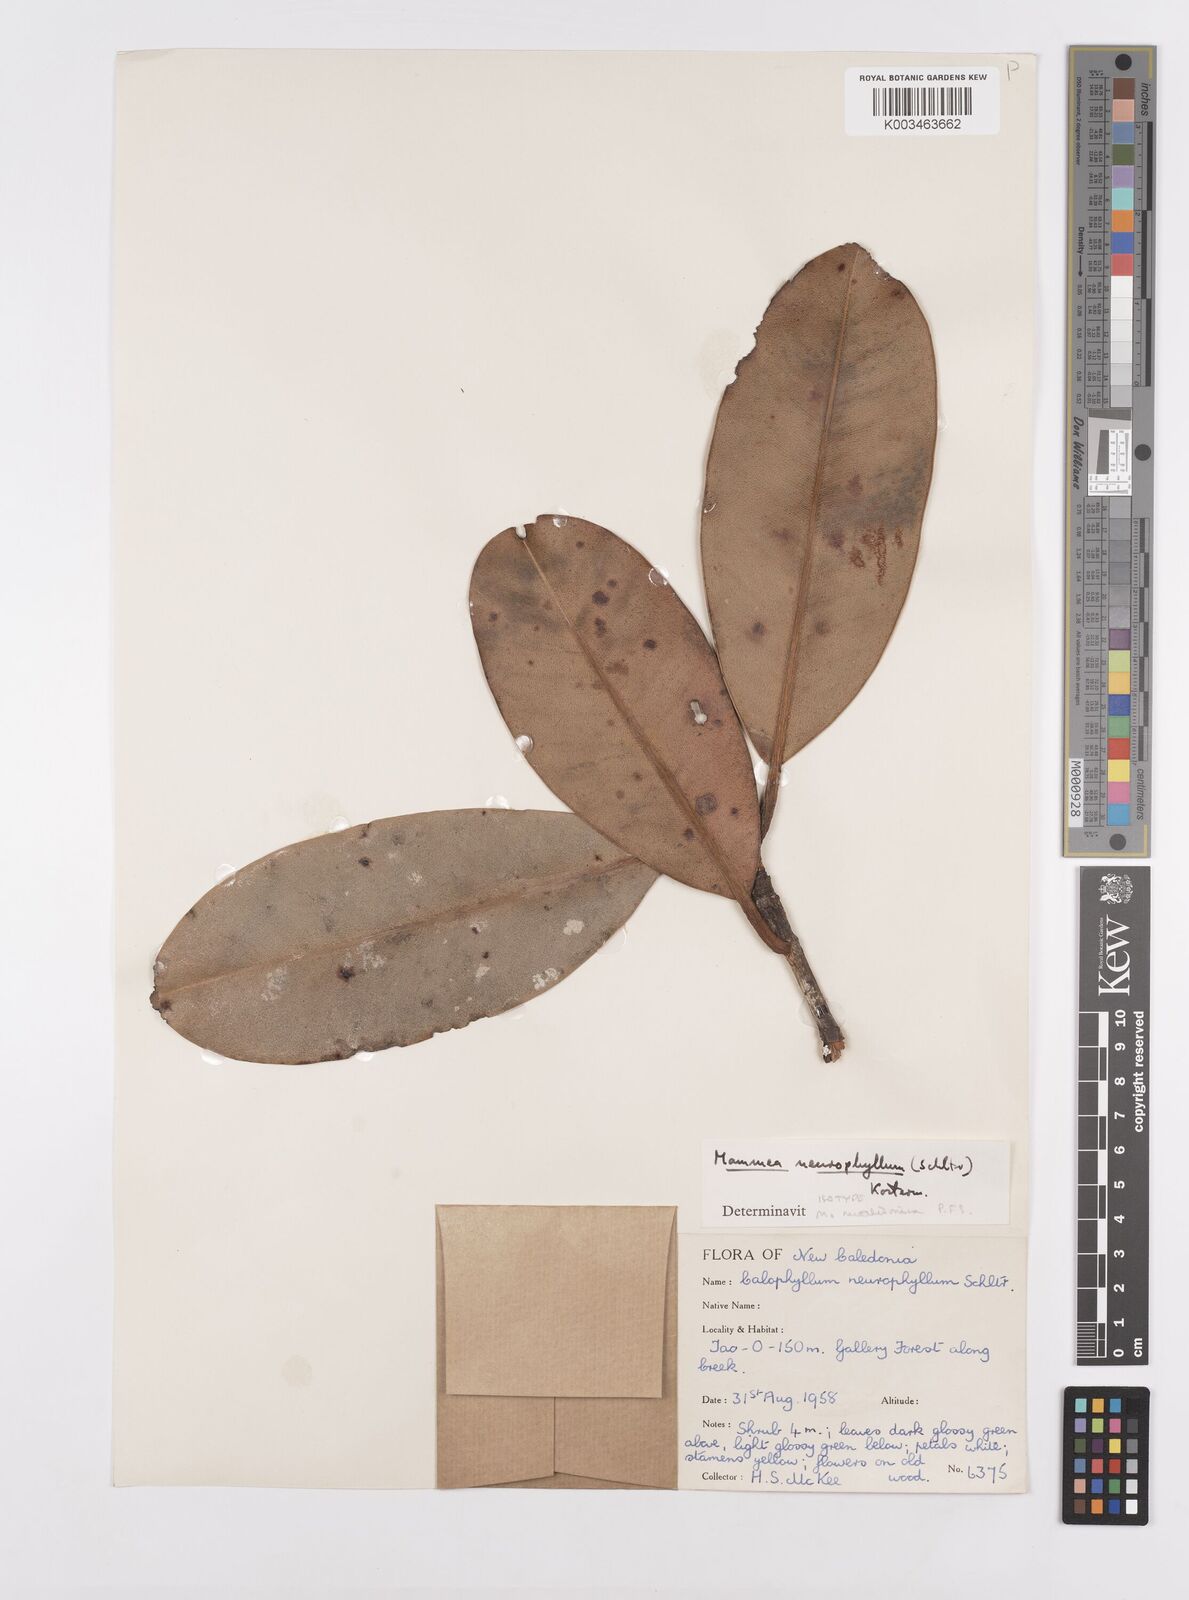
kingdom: Plantae
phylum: Tracheophyta
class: Magnoliopsida
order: Malpighiales
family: Calophyllaceae
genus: Mammea
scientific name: Mammea neurophylla
